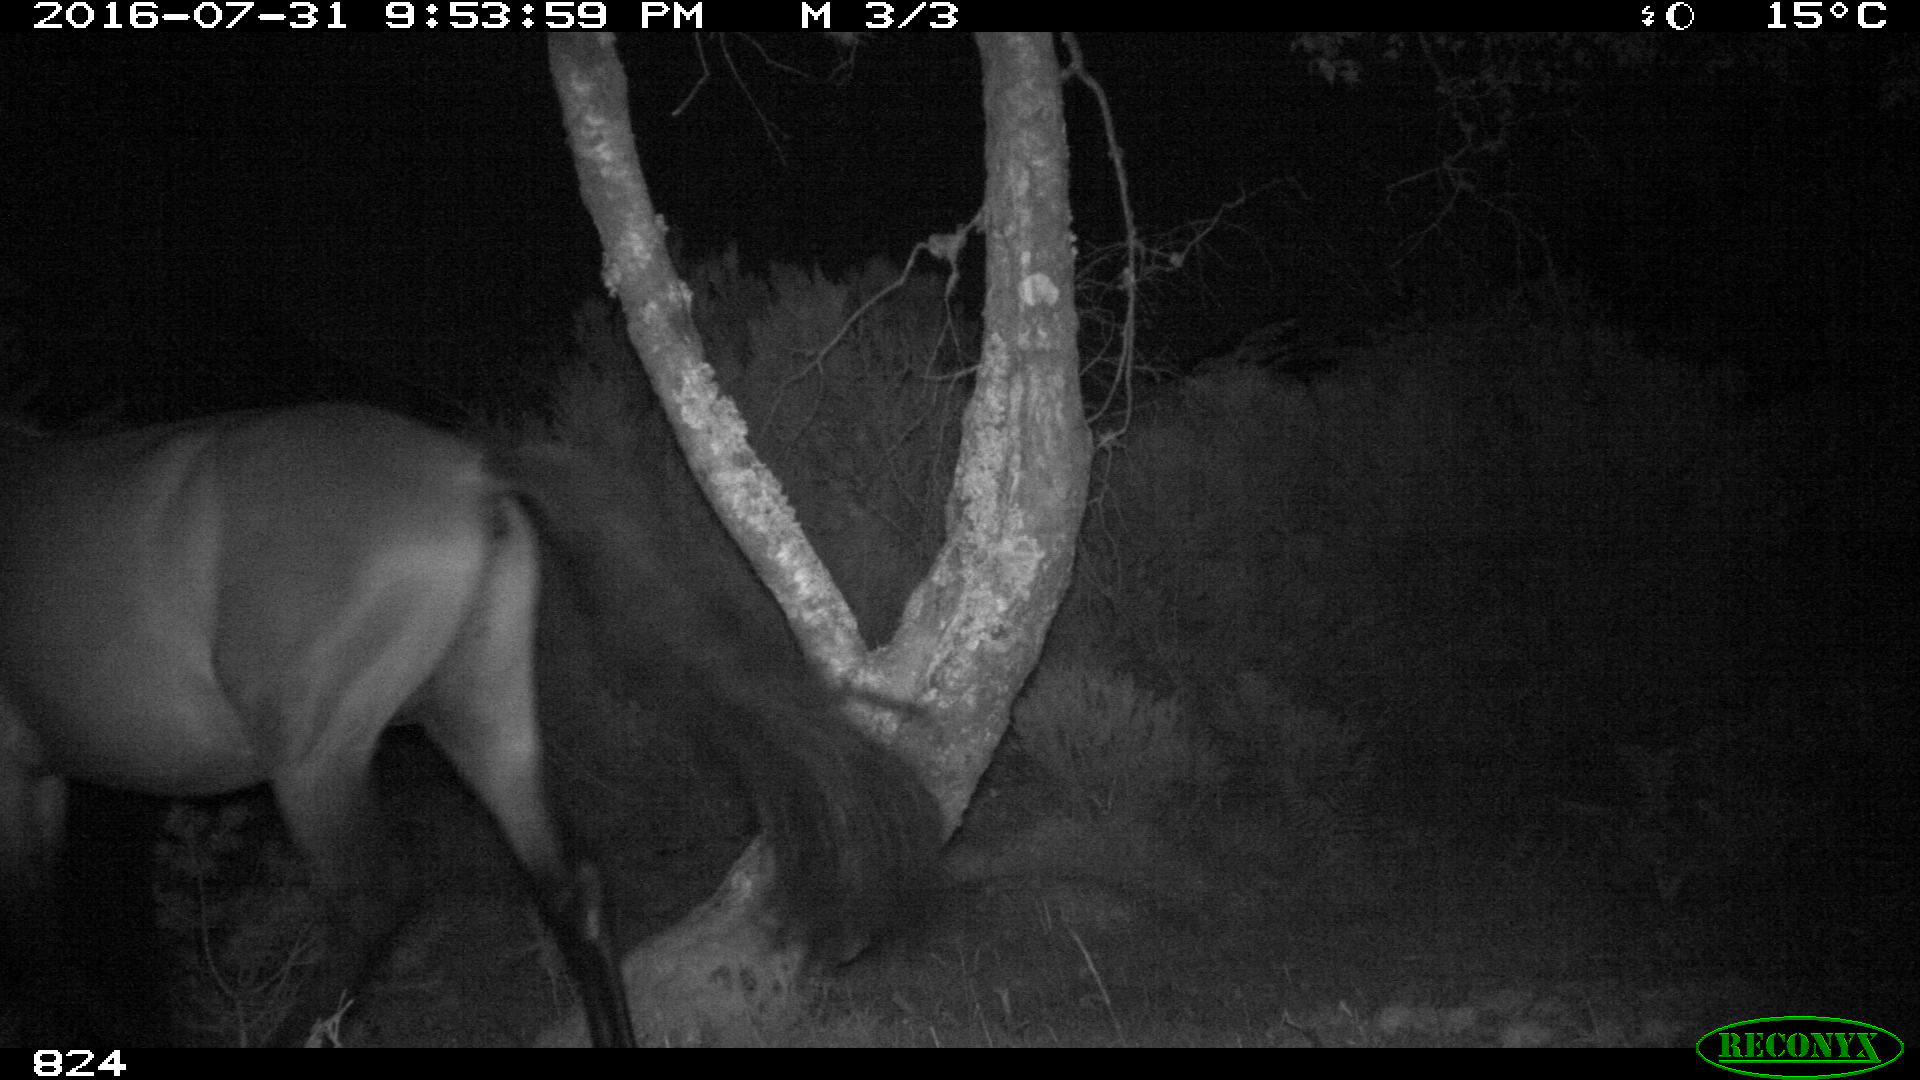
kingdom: Animalia
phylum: Chordata
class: Mammalia
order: Perissodactyla
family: Equidae
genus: Equus
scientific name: Equus caballus
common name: Horse
